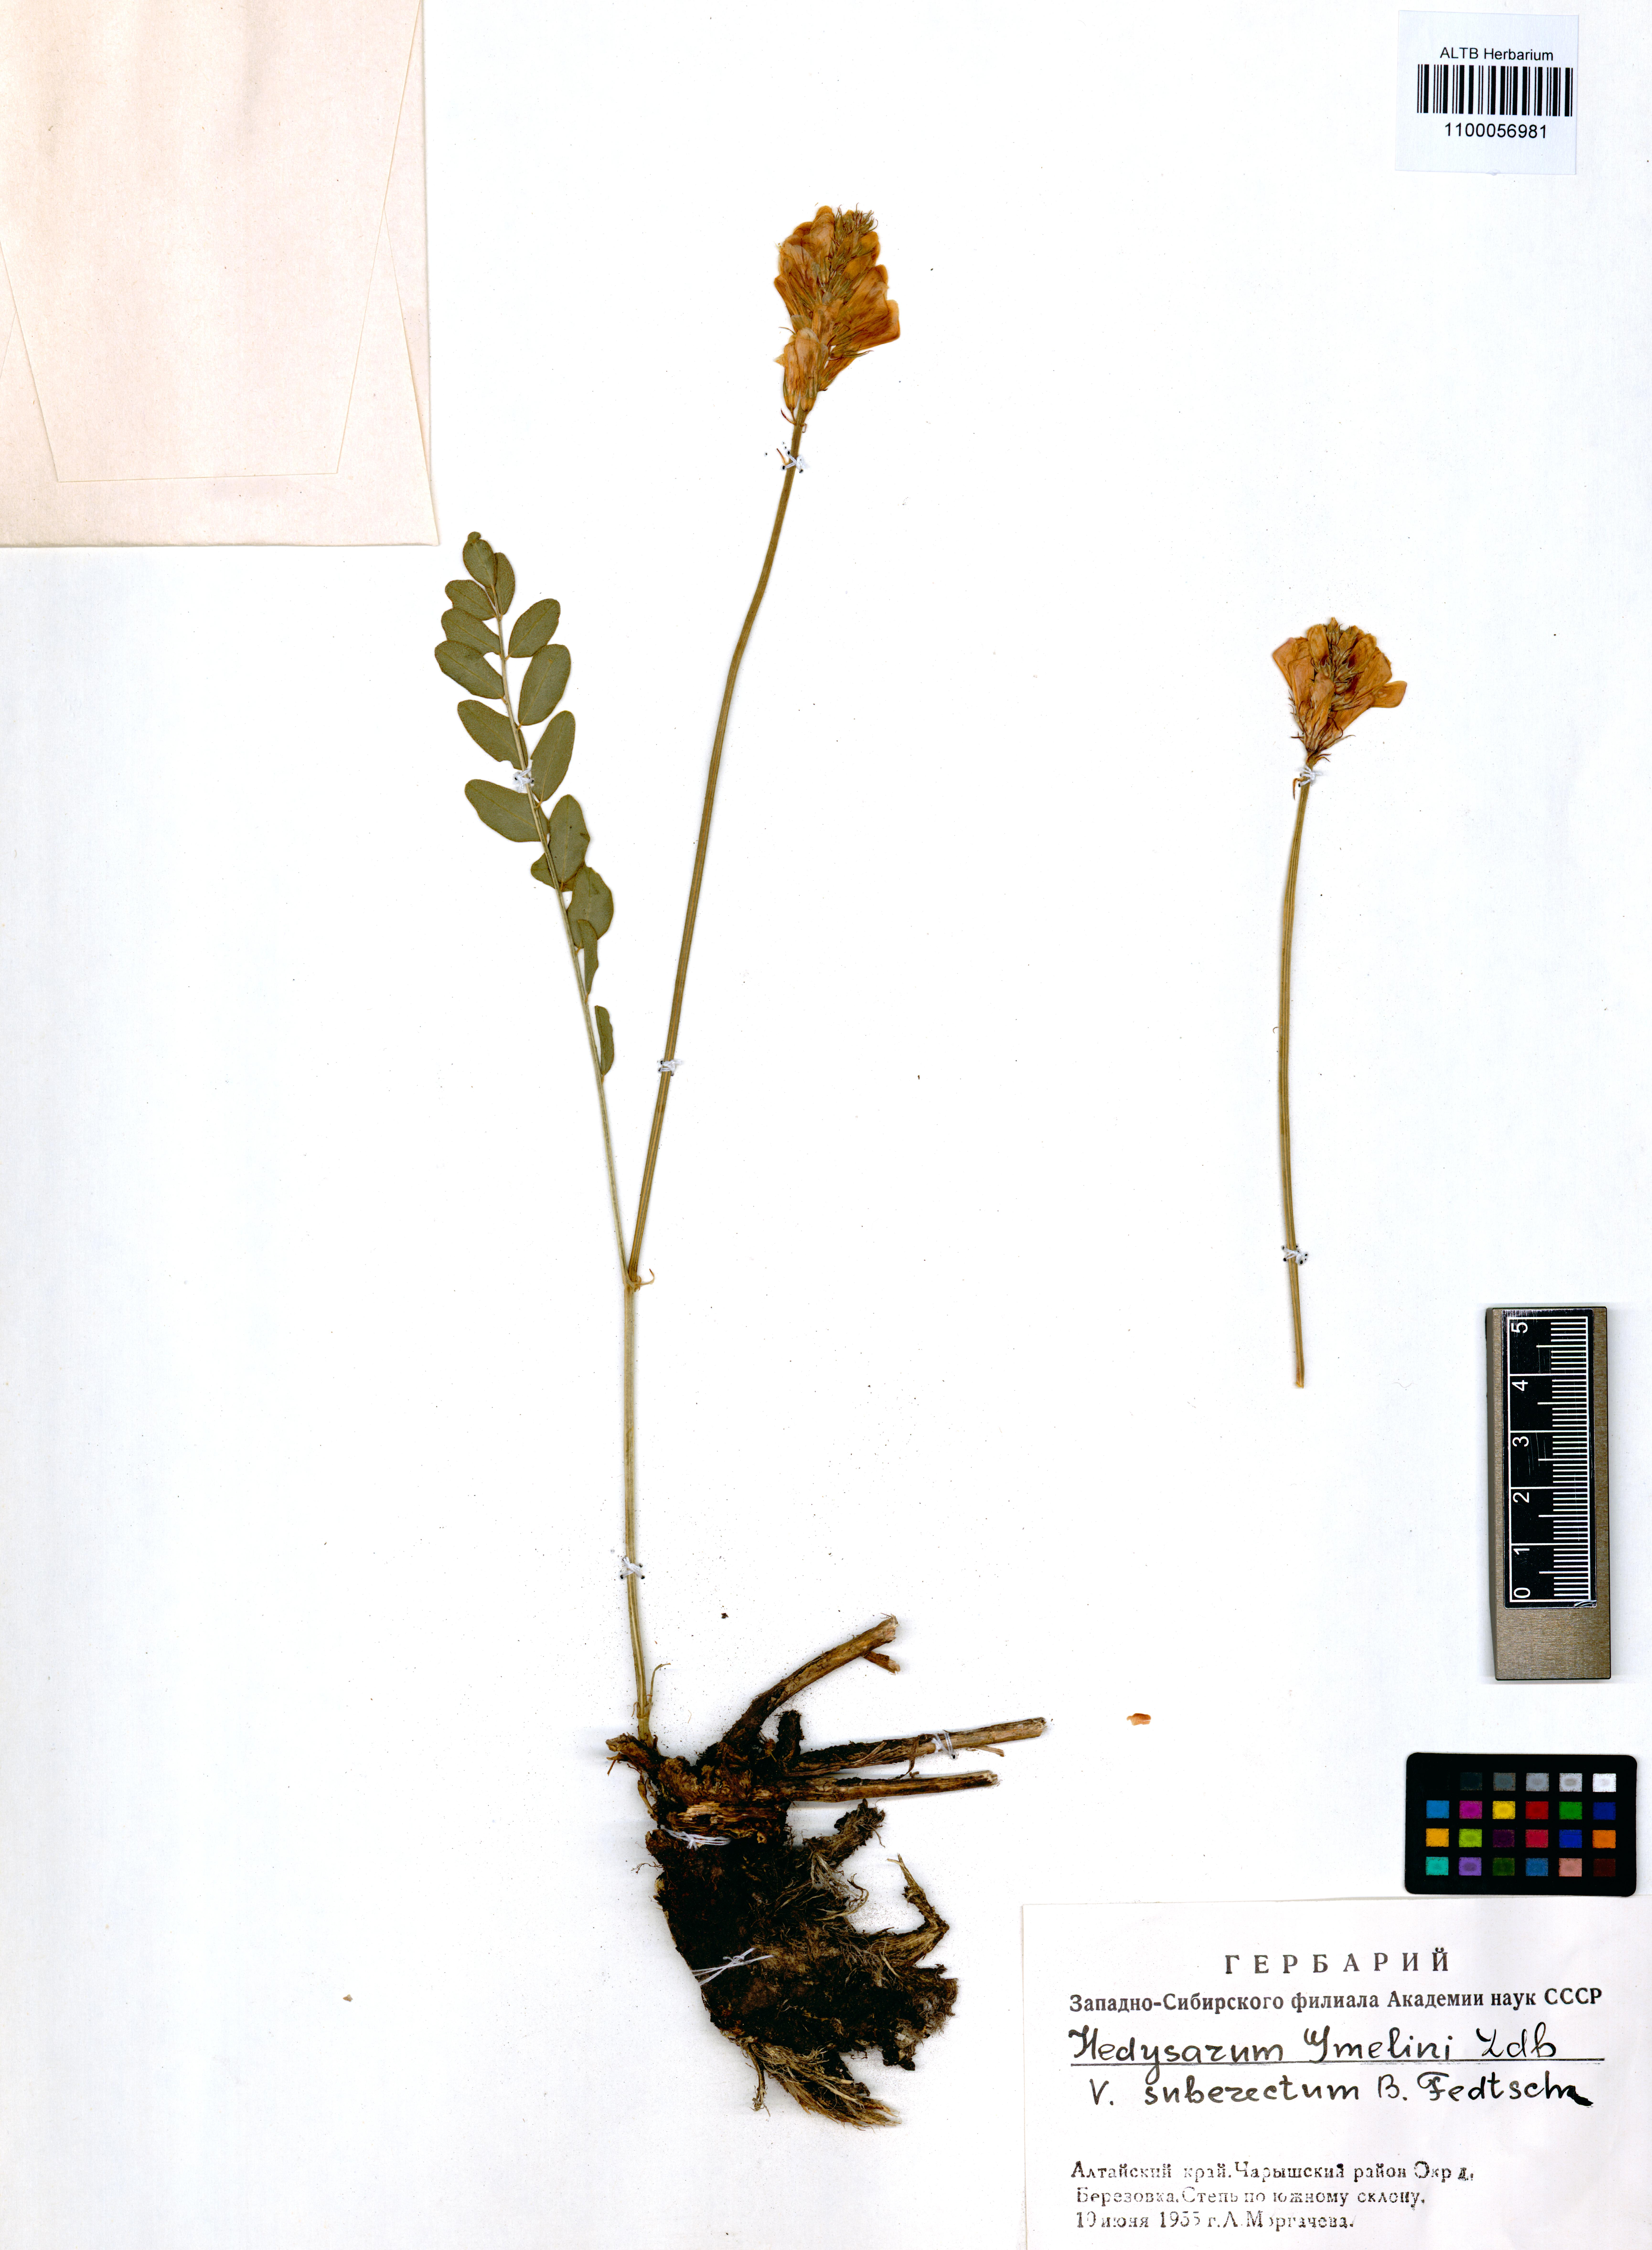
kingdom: Plantae
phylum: Tracheophyta
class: Magnoliopsida
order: Fabales
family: Fabaceae
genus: Hedysarum
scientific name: Hedysarum gmelinii
